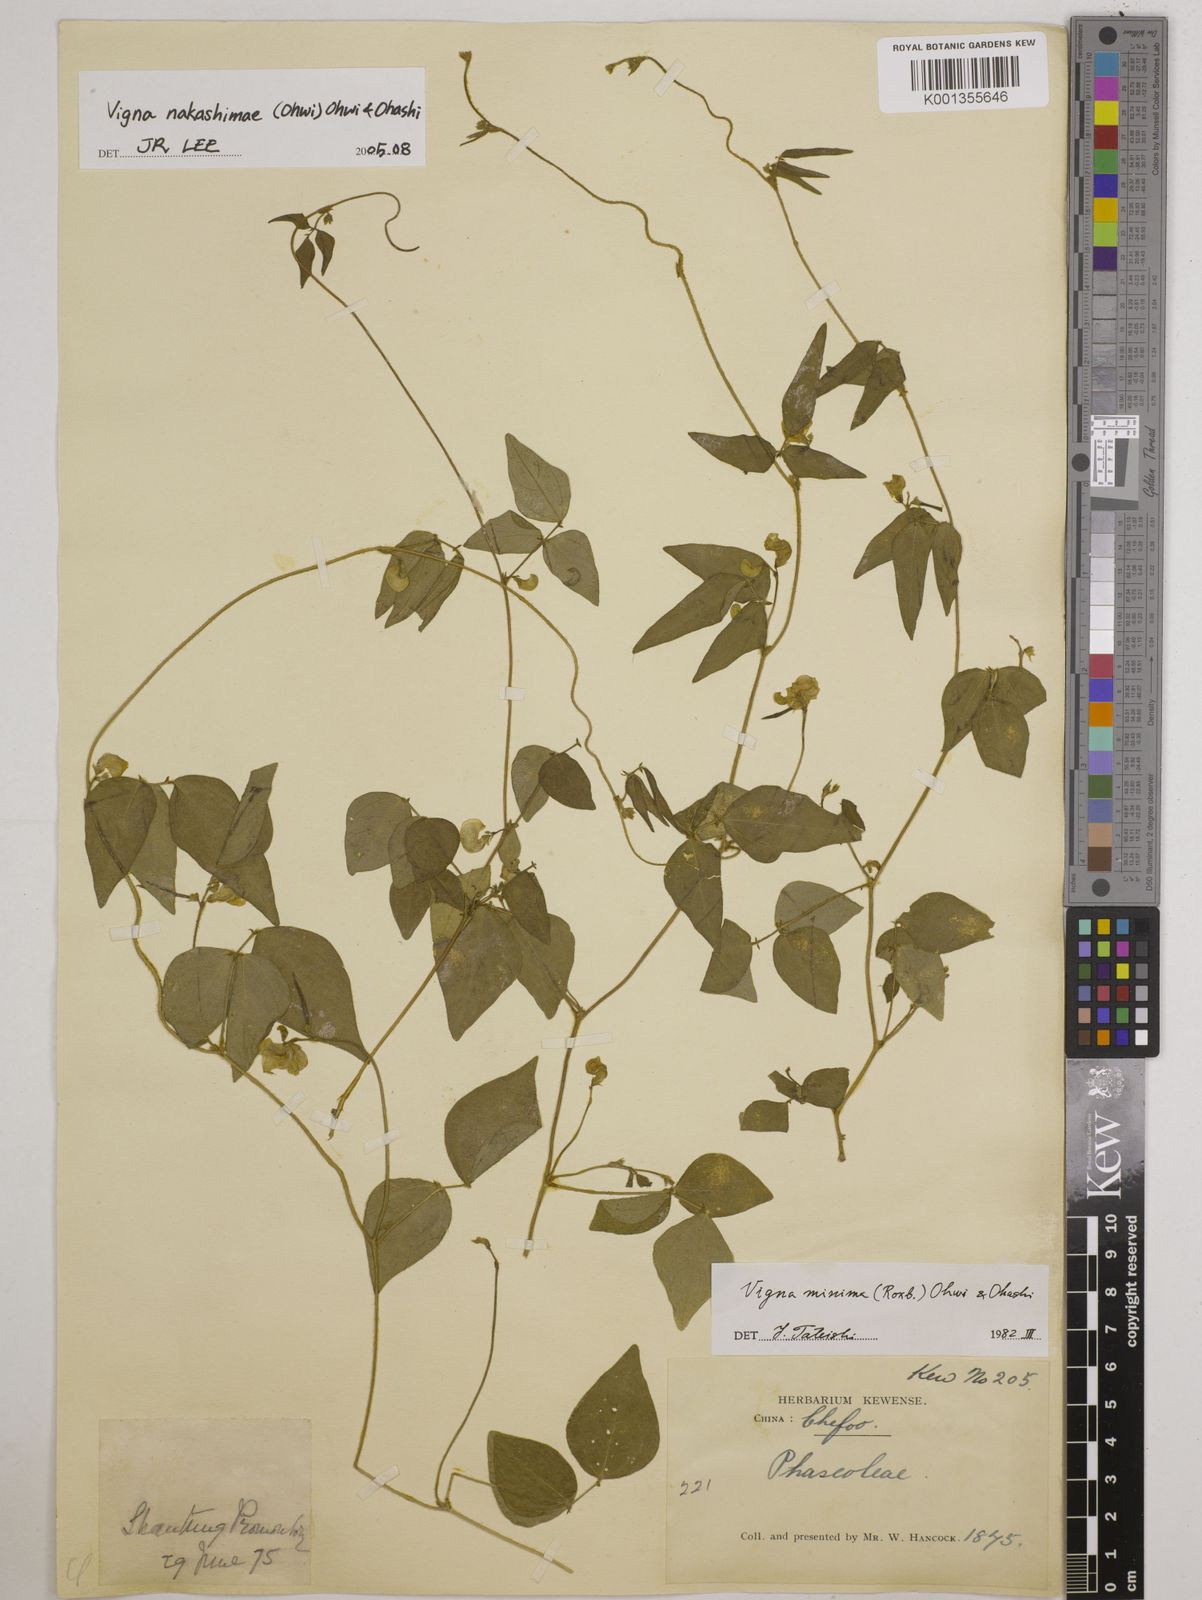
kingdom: Plantae
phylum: Tracheophyta
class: Magnoliopsida
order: Fabales
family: Fabaceae
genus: Vigna
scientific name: Vigna minima
